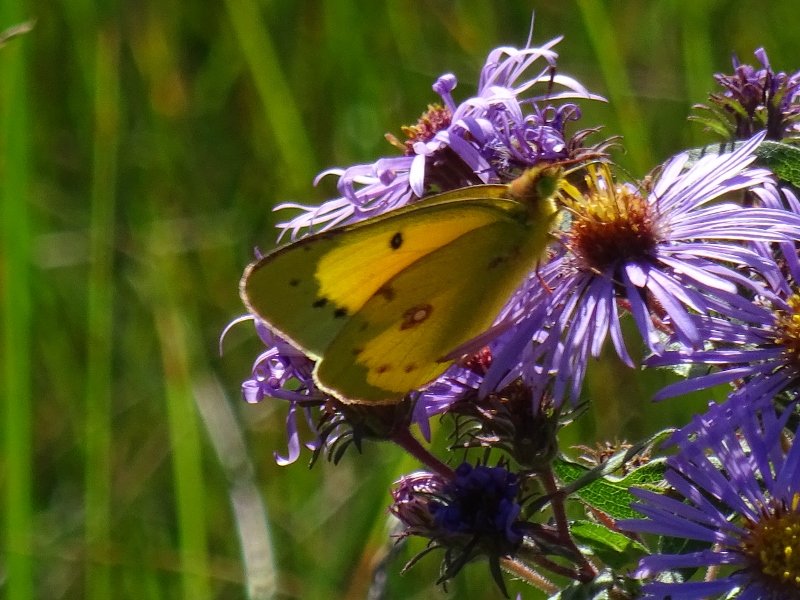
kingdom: Animalia
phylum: Arthropoda
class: Insecta
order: Lepidoptera
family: Pieridae
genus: Colias
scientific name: Colias eurytheme
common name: Orange Sulphur
